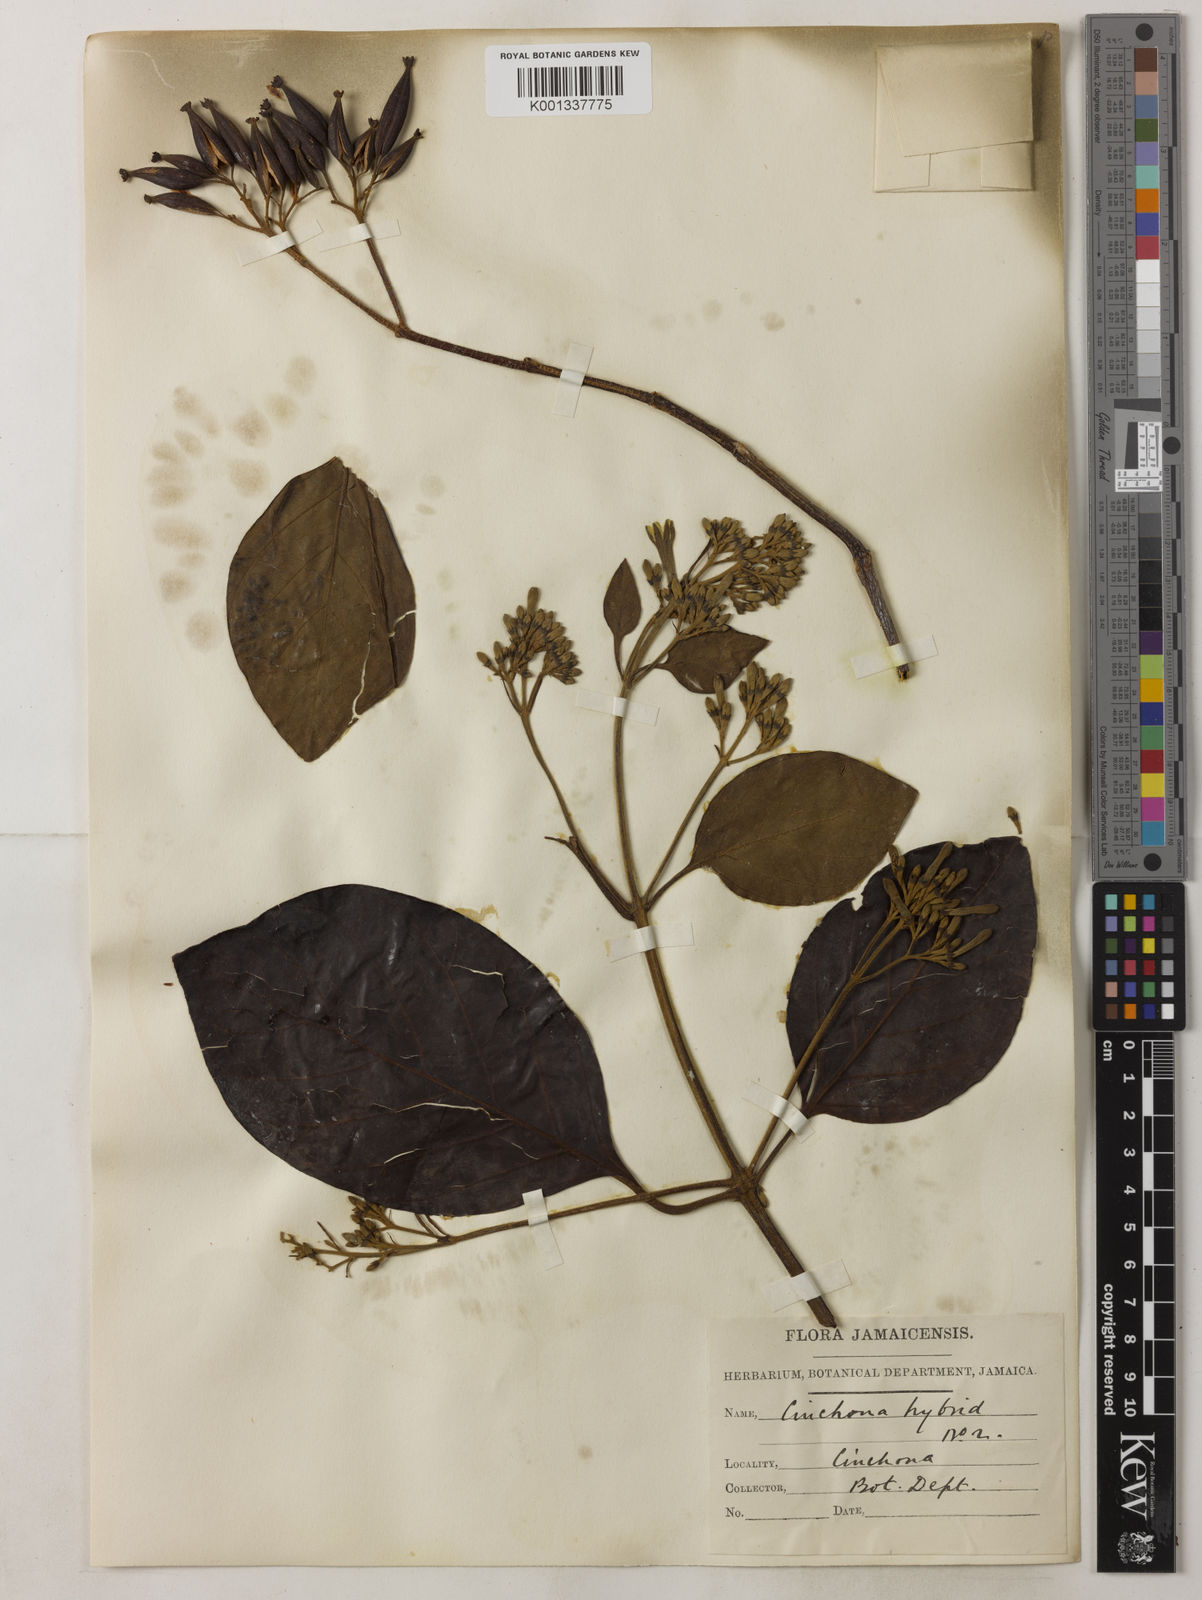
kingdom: Plantae
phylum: Tracheophyta
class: Magnoliopsida
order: Gentianales
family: Rubiaceae
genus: Cinchona
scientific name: Cinchona
